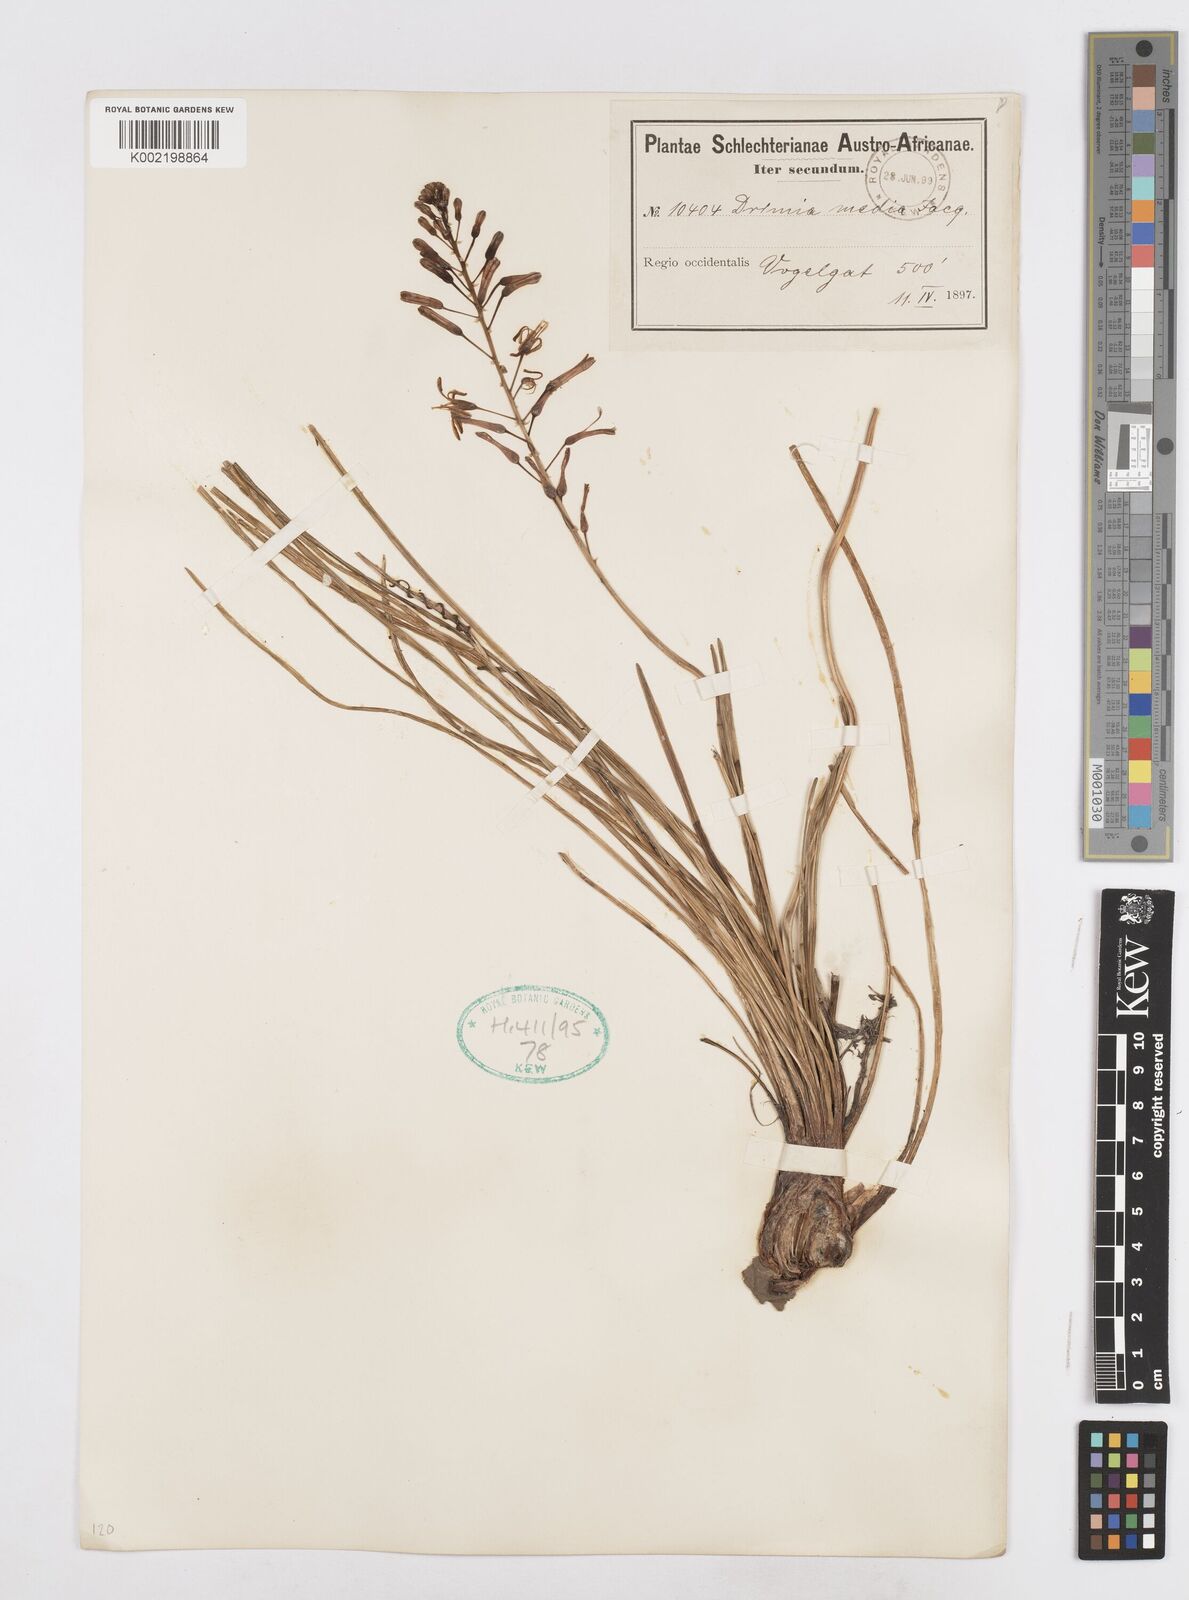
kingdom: Plantae
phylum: Tracheophyta
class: Liliopsida
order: Asparagales
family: Asparagaceae
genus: Drimia
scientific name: Drimia media
